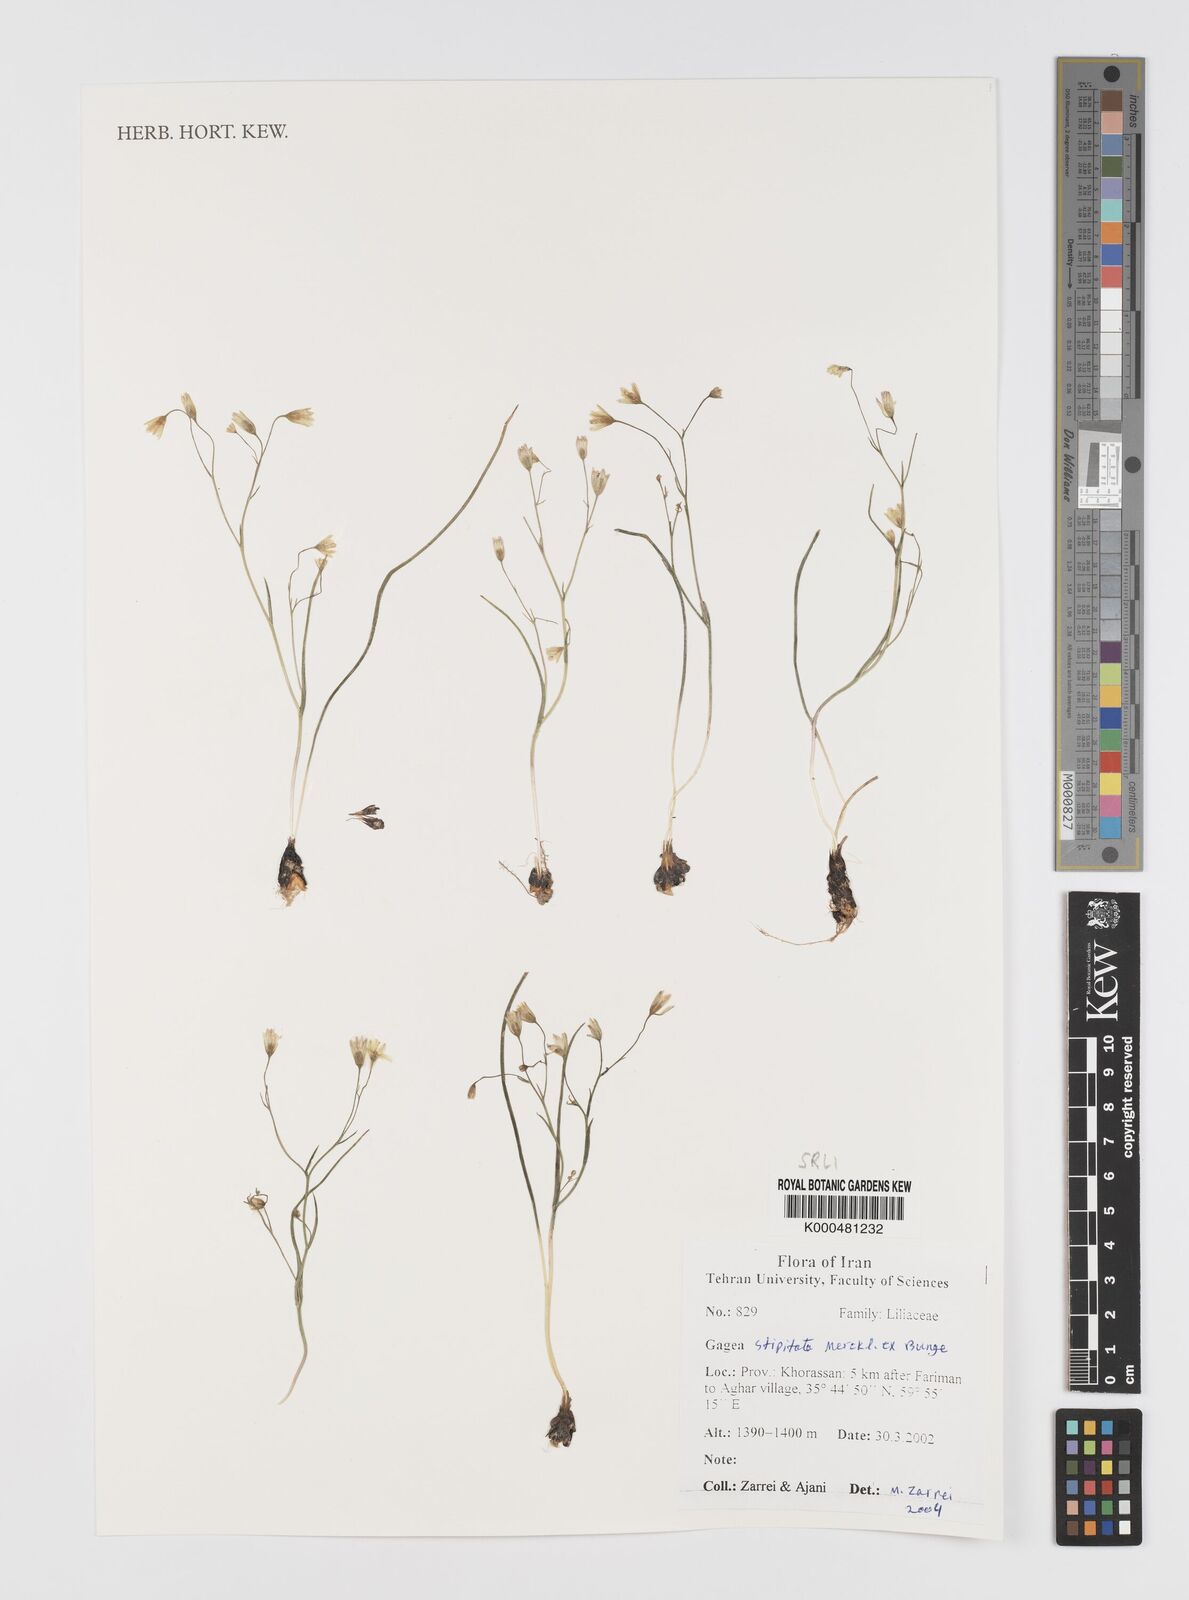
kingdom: Plantae
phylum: Tracheophyta
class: Liliopsida
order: Liliales
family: Liliaceae
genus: Gagea
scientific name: Gagea kunawurensis
